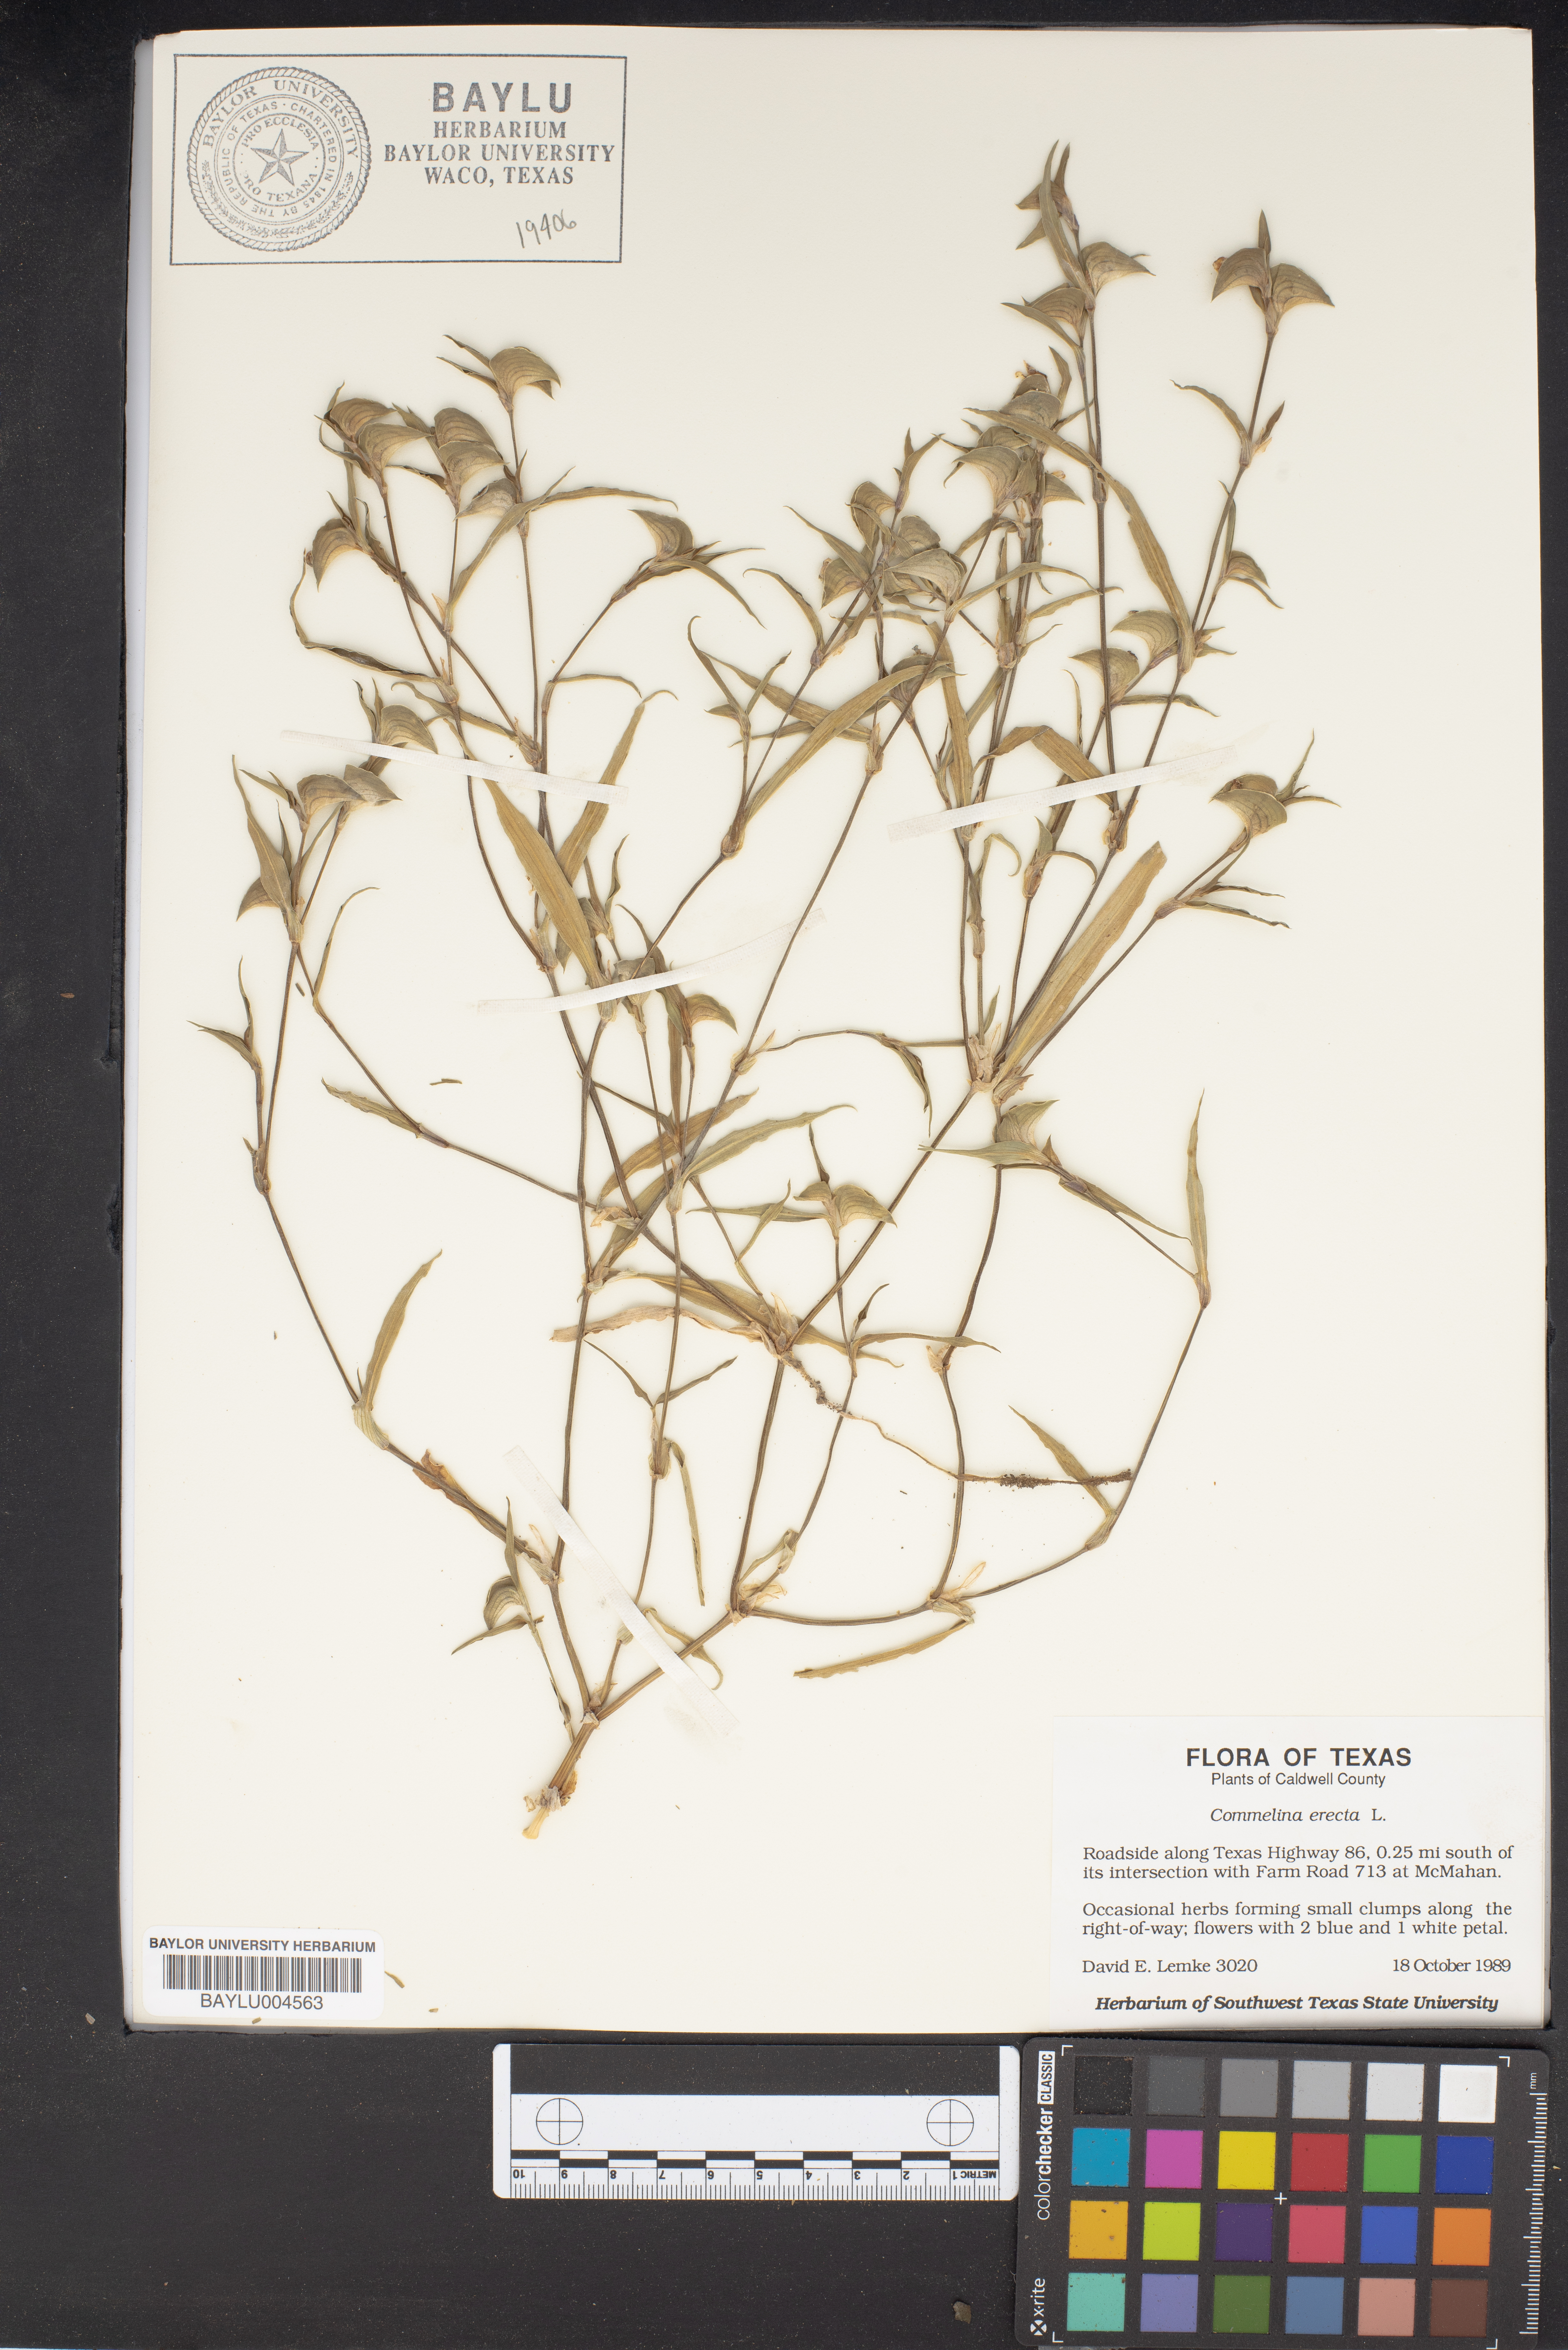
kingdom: Plantae
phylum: Tracheophyta
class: Liliopsida
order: Commelinales
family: Commelinaceae
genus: Commelina
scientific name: Commelina erecta
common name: Blousel blommetjie
